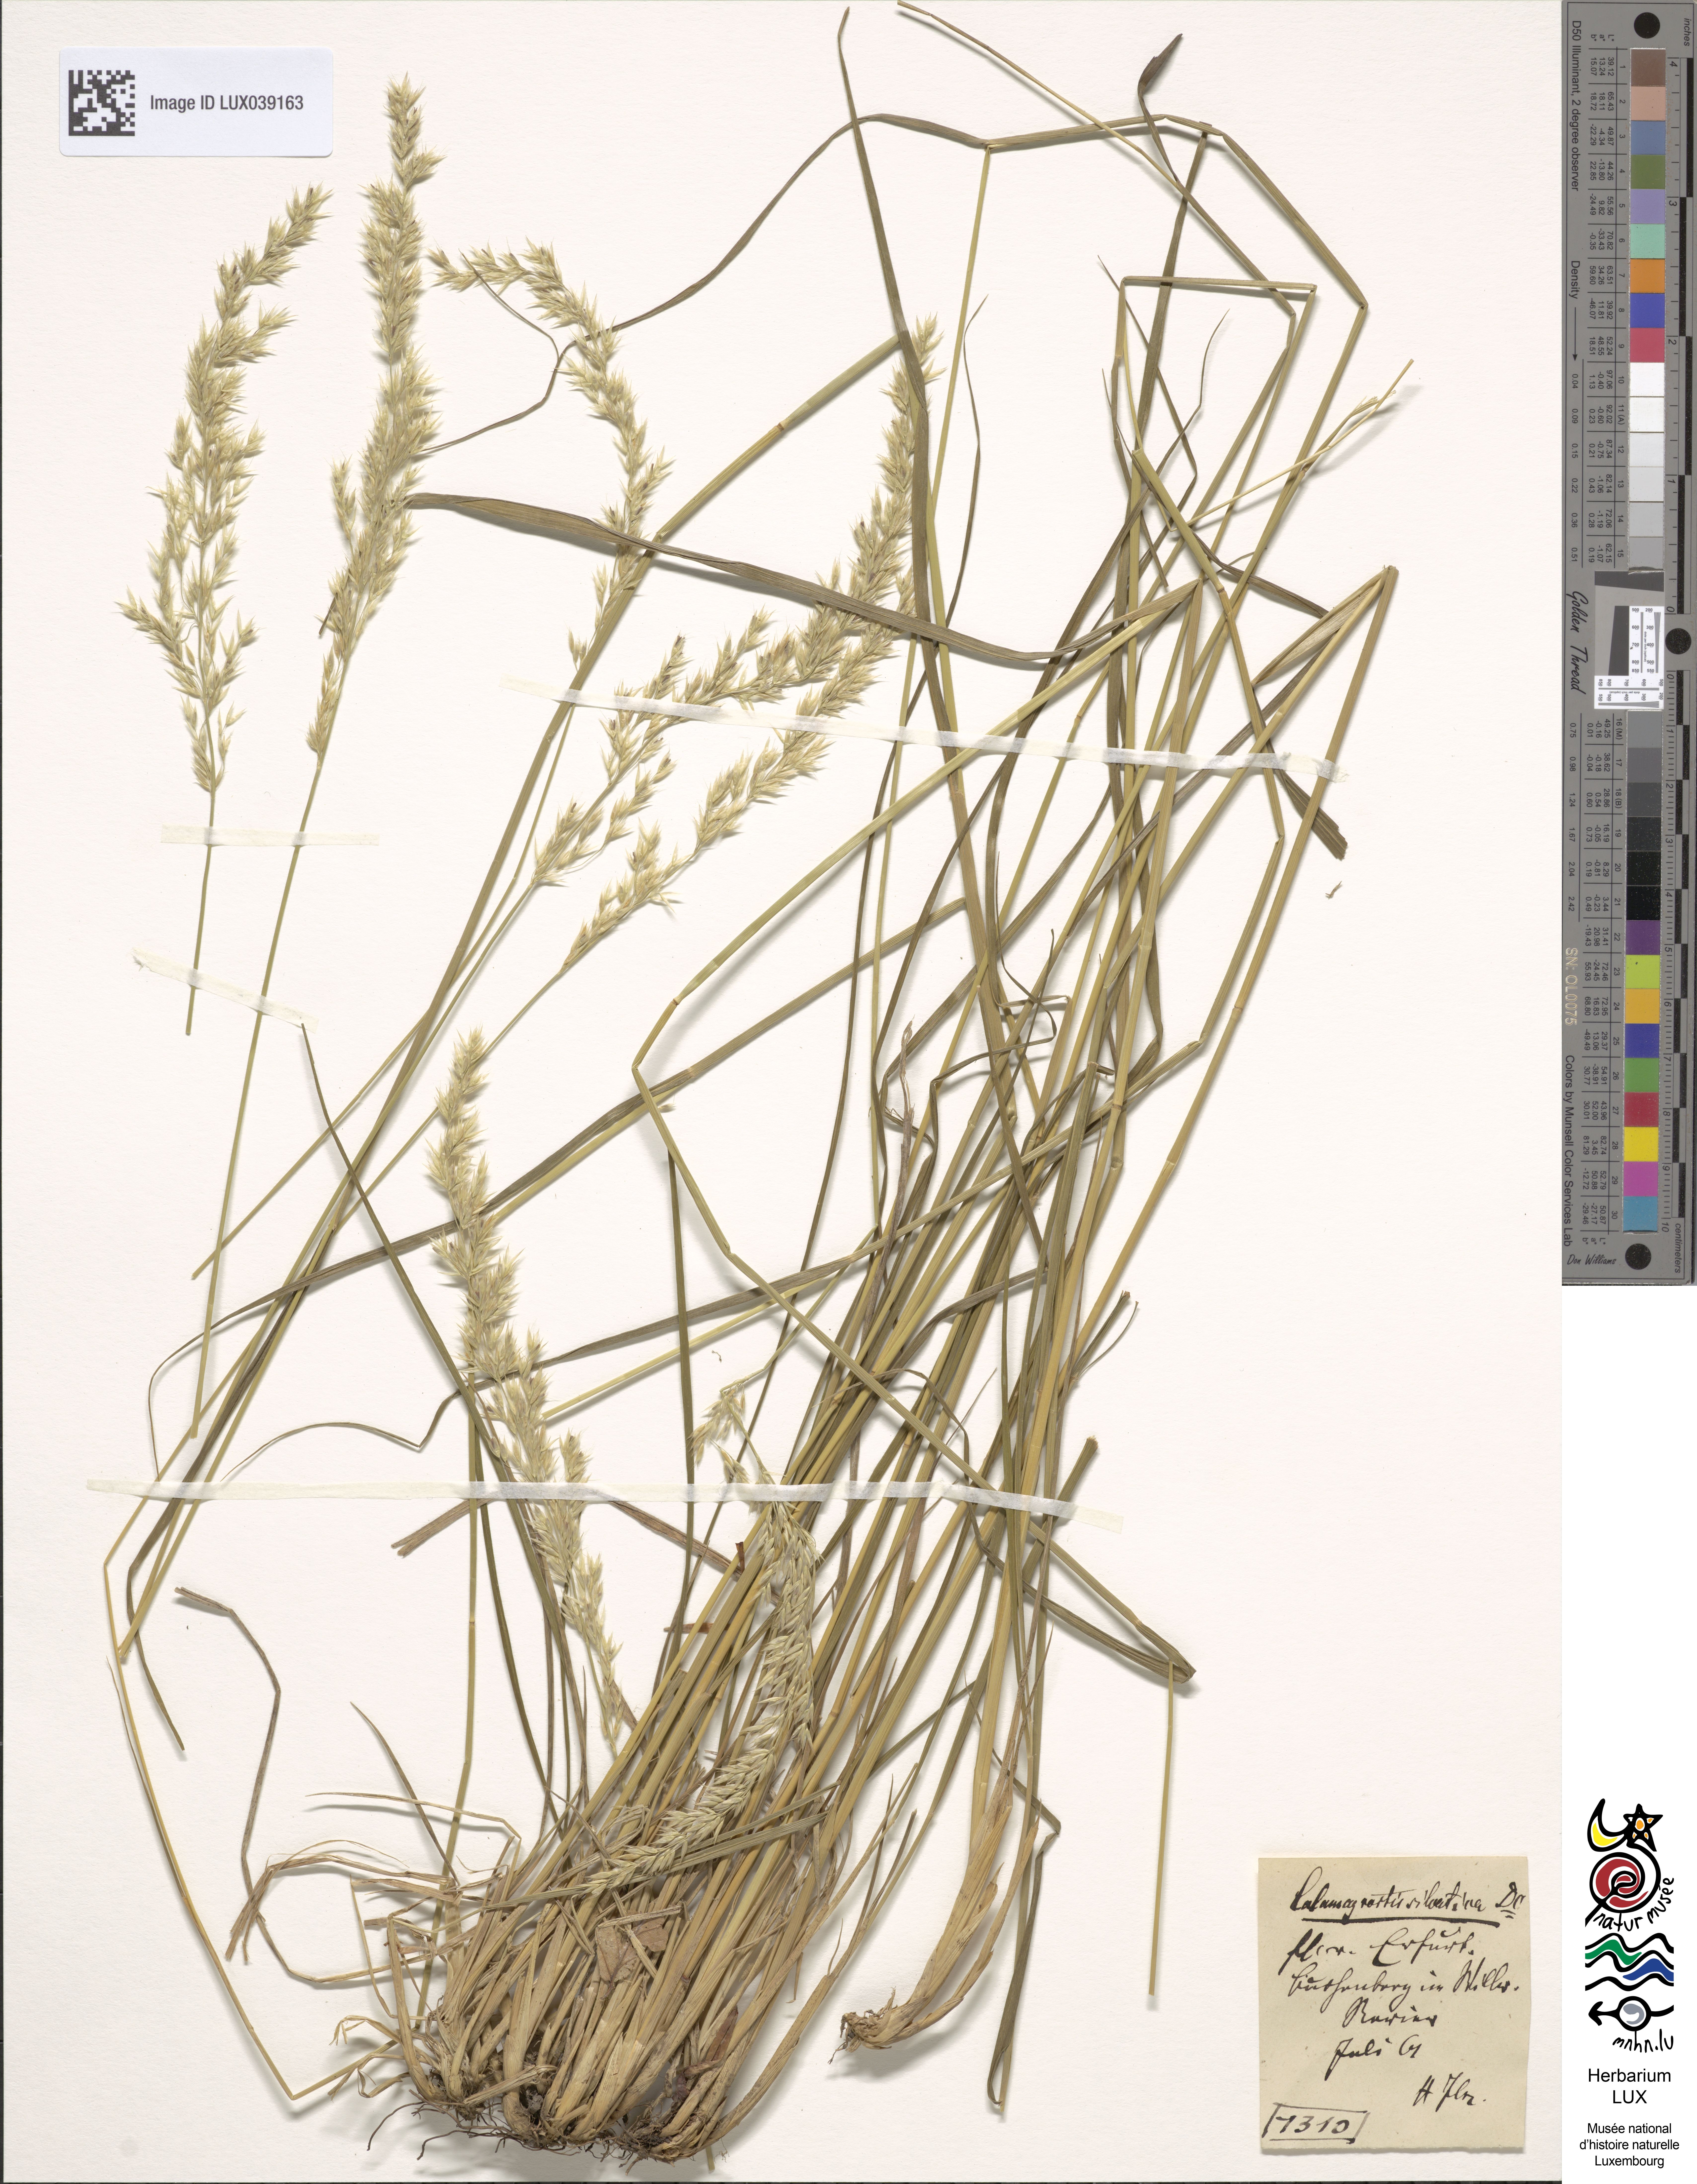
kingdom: Plantae
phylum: Tracheophyta
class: Liliopsida
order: Poales
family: Poaceae
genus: Calamagrostis
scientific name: Calamagrostis arundinacea
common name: Metskastik
